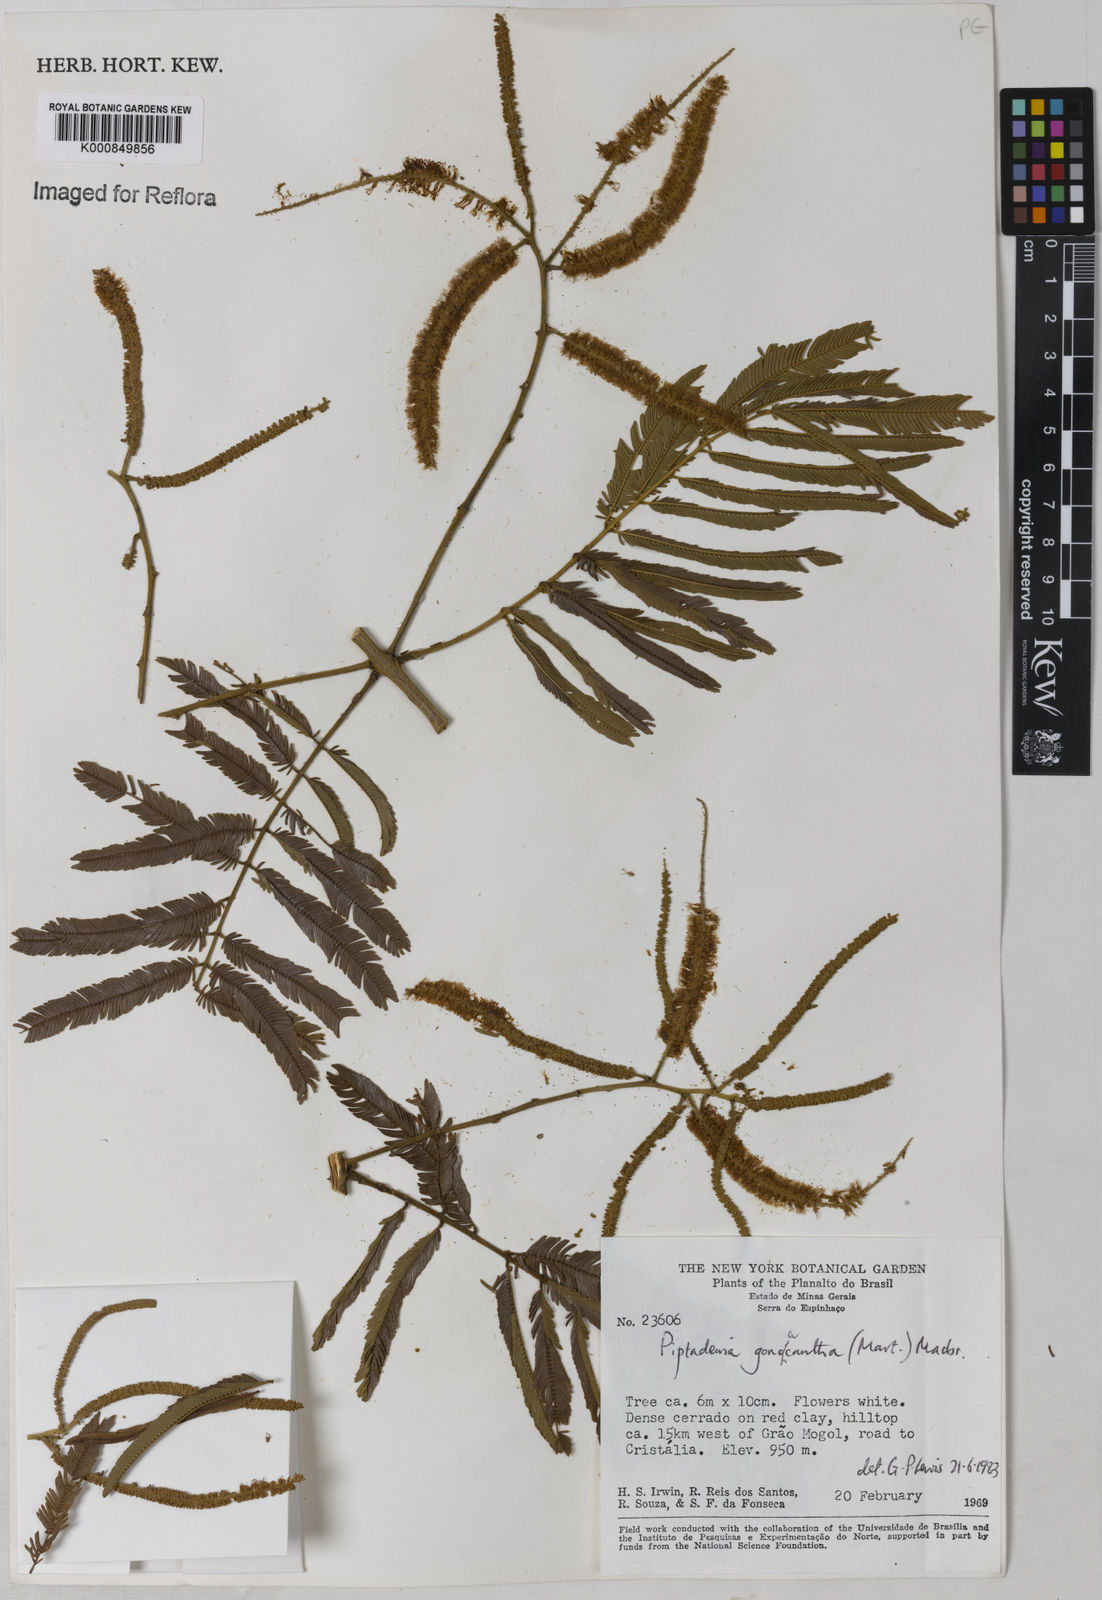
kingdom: Plantae
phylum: Tracheophyta
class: Magnoliopsida
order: Fabales
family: Fabaceae
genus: Piptadenia
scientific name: Piptadenia gonoacantha
